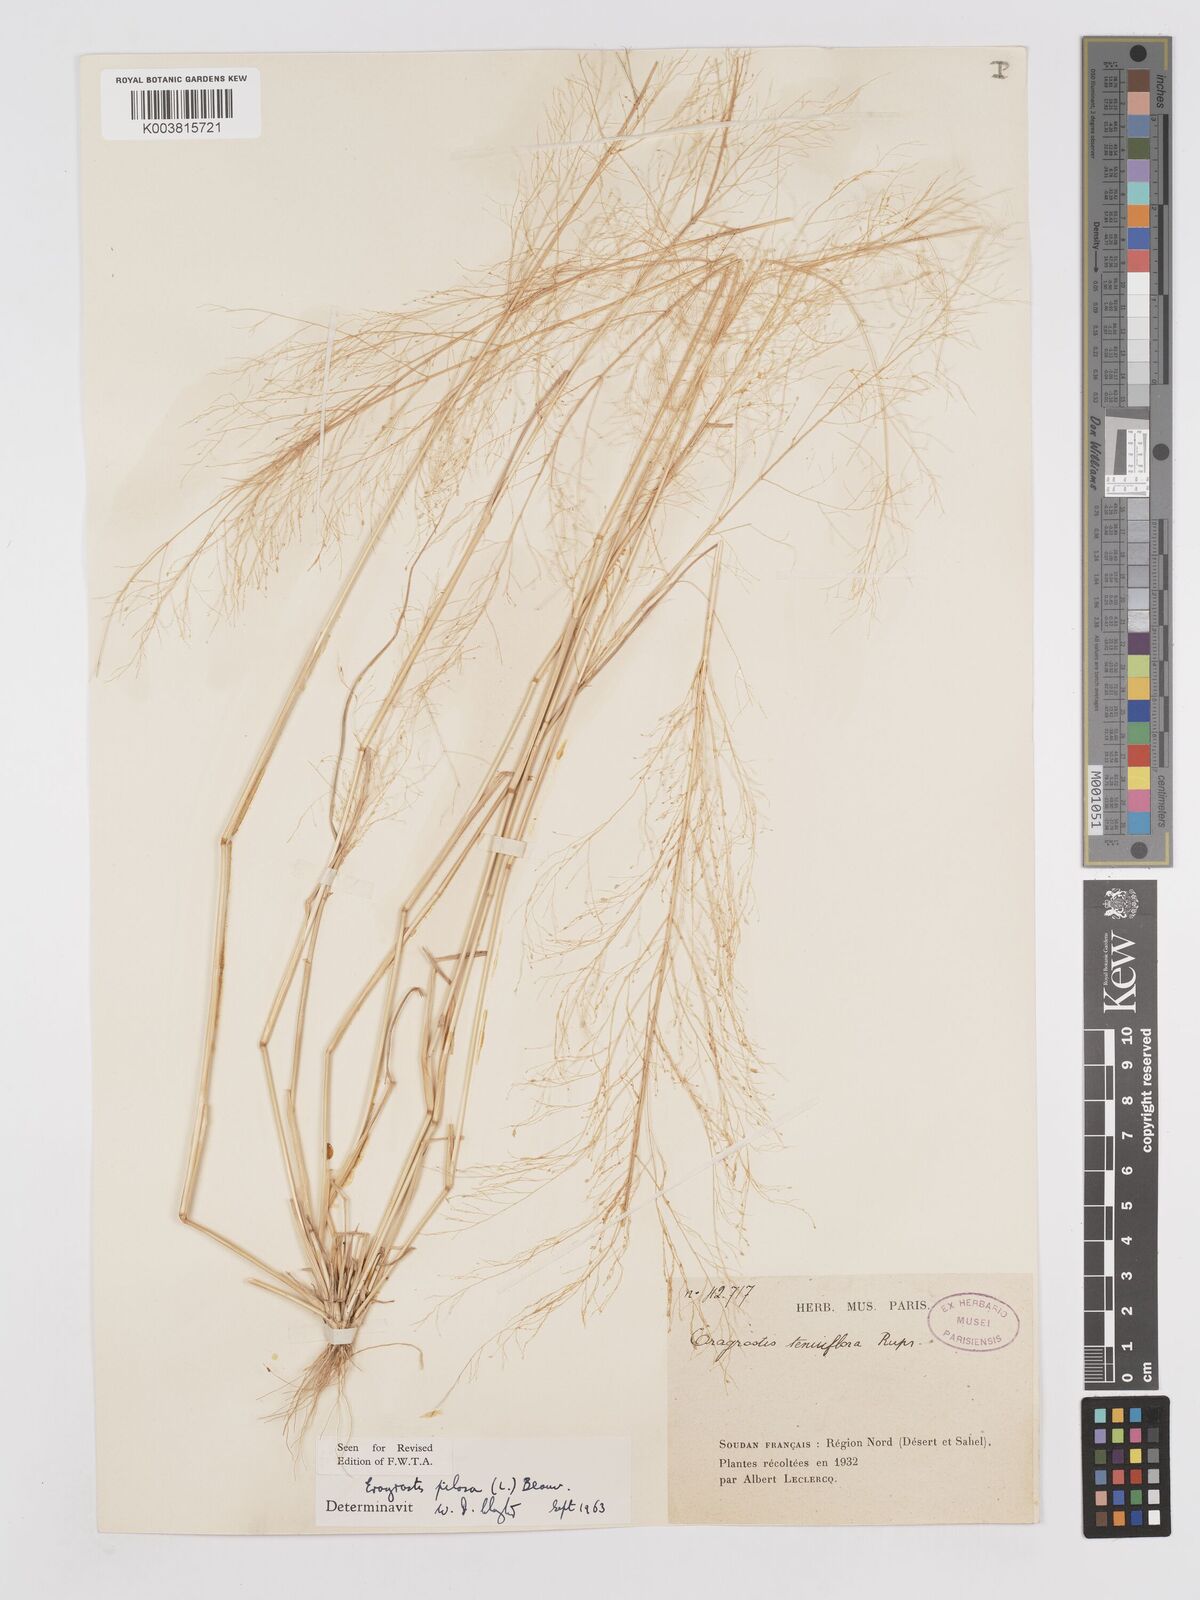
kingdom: Plantae
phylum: Tracheophyta
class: Liliopsida
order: Poales
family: Poaceae
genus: Eragrostis
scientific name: Eragrostis pilosa
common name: Indian lovegrass
